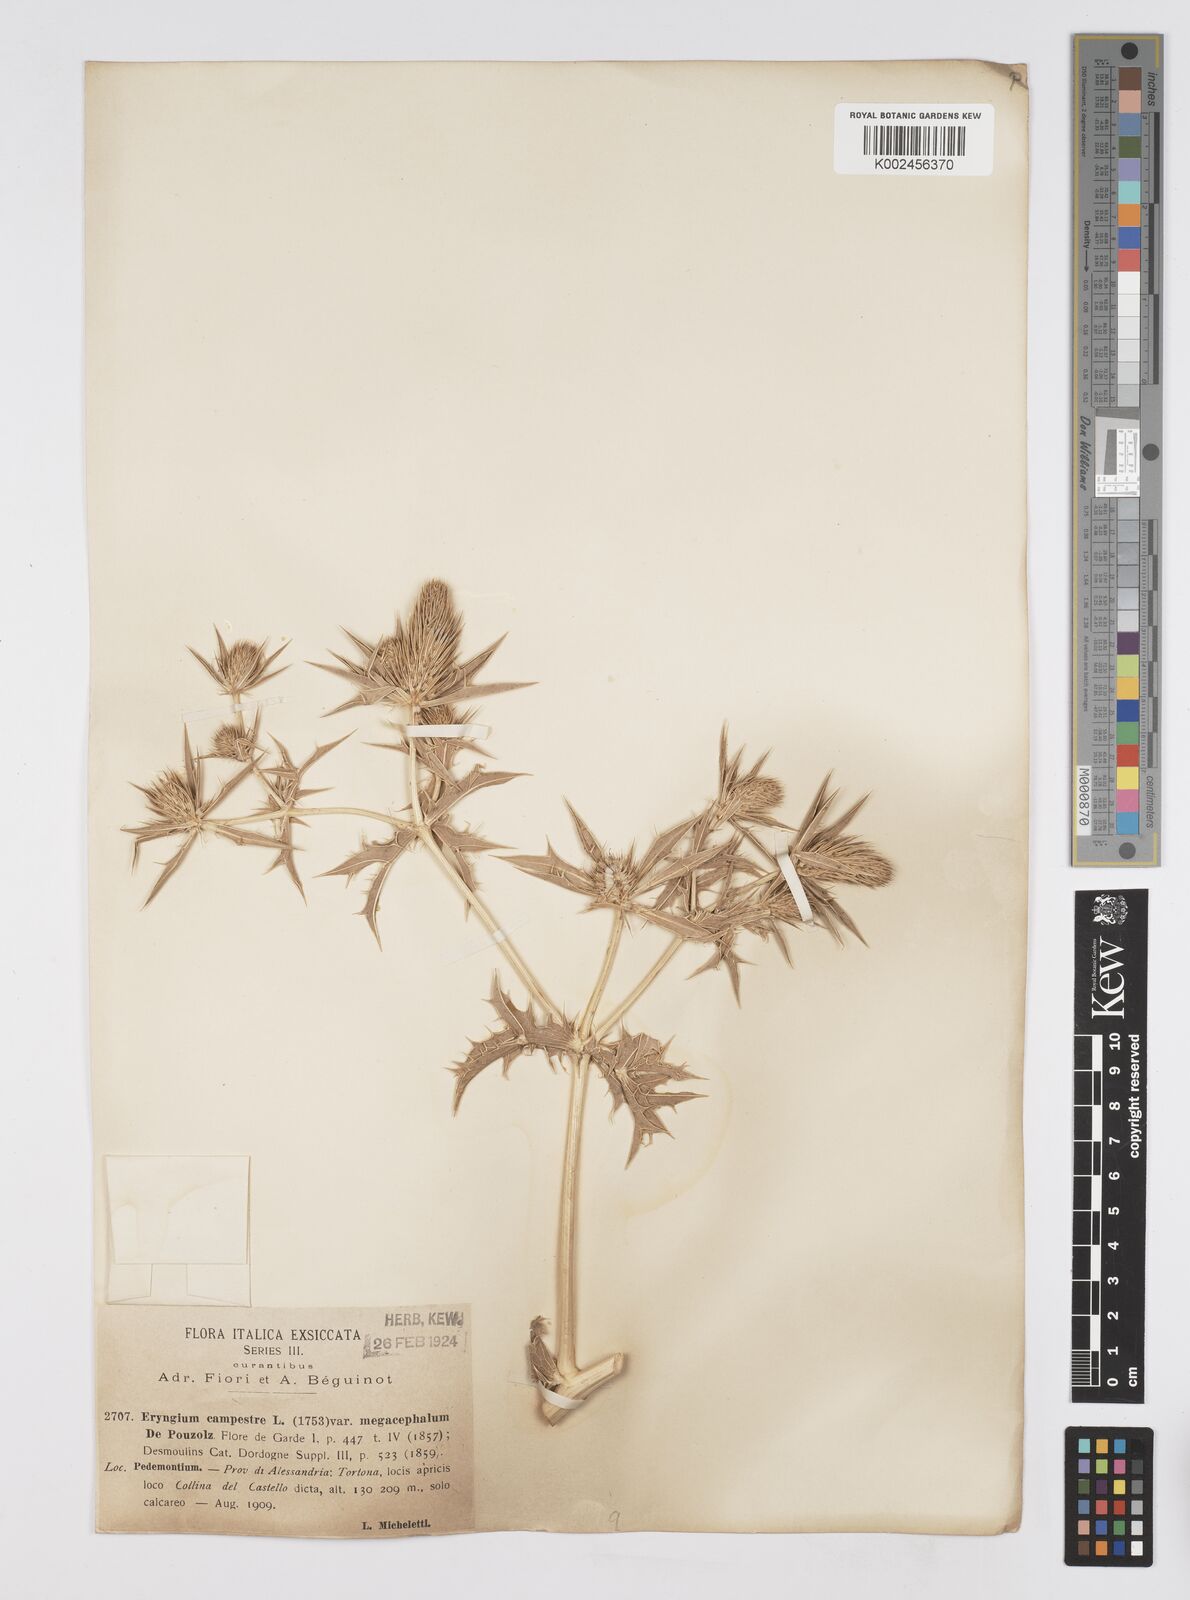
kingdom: Plantae
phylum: Tracheophyta
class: Magnoliopsida
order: Apiales
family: Apiaceae
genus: Eryngium
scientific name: Eryngium campestre
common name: Field eryngo
